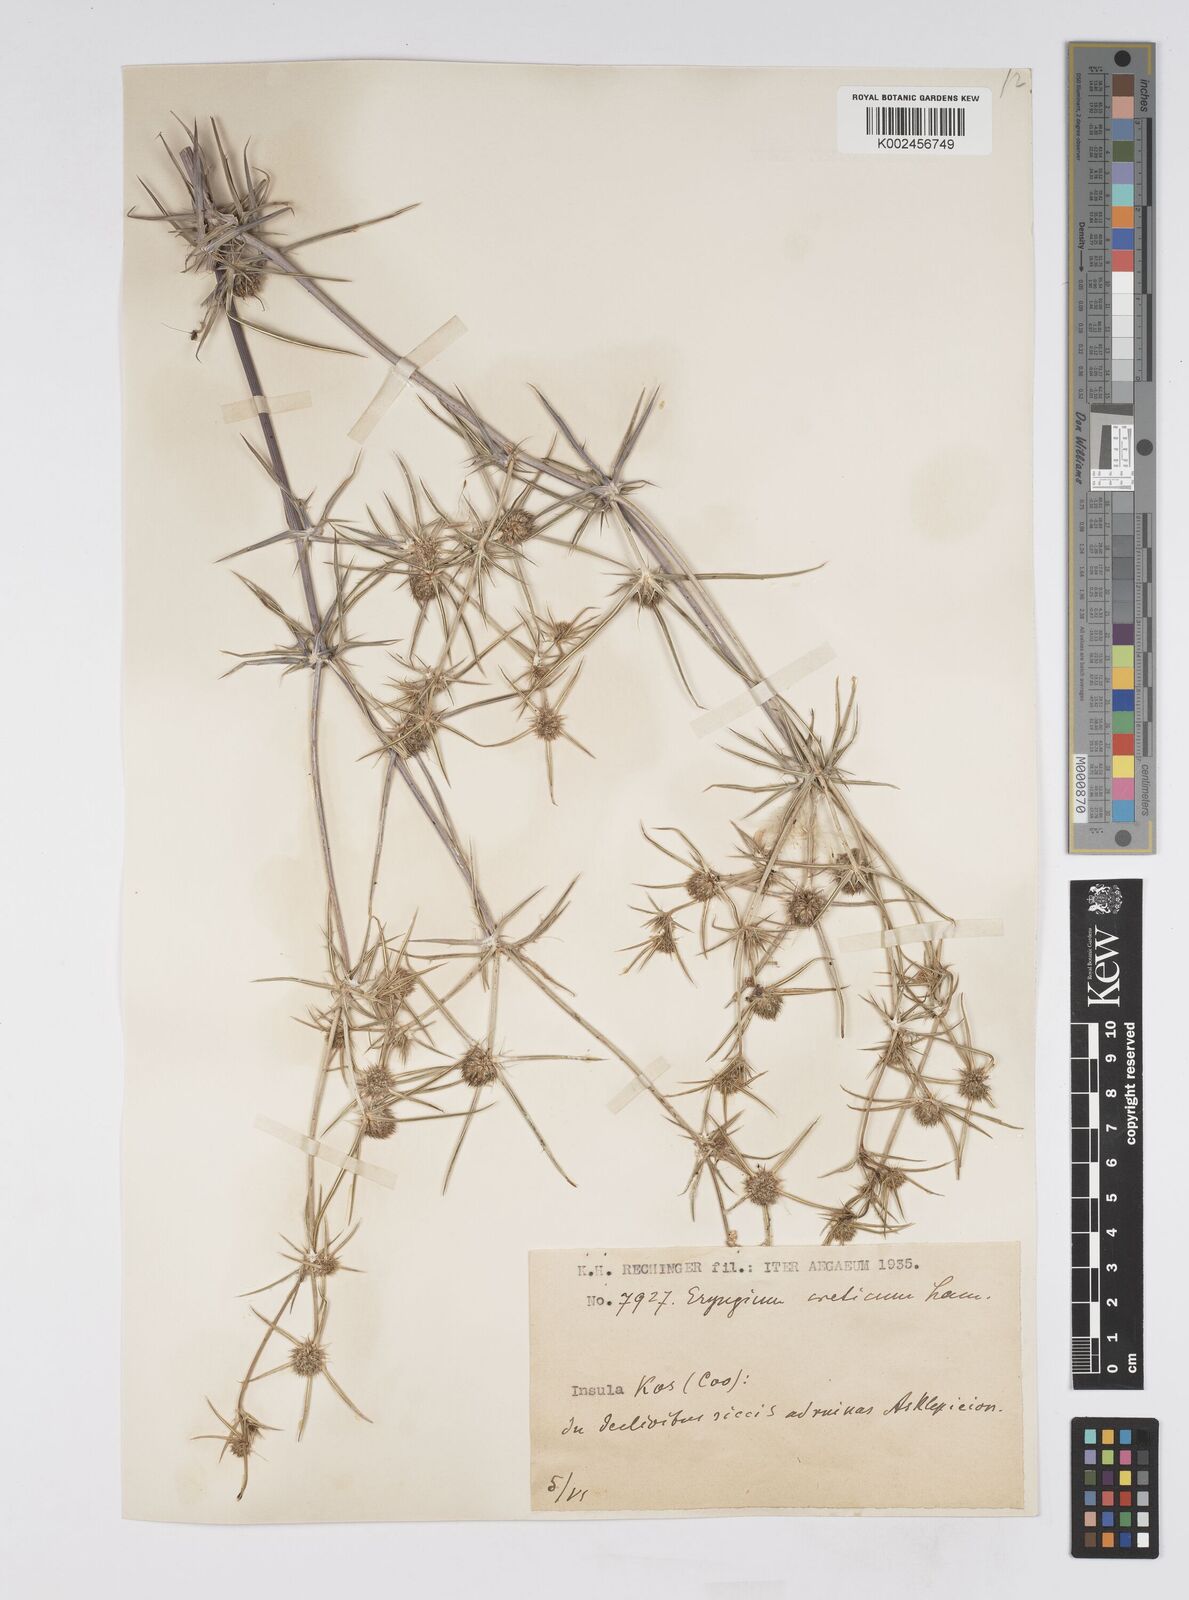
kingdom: Plantae
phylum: Tracheophyta
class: Magnoliopsida
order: Apiales
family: Apiaceae
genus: Eryngium
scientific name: Eryngium creticum
